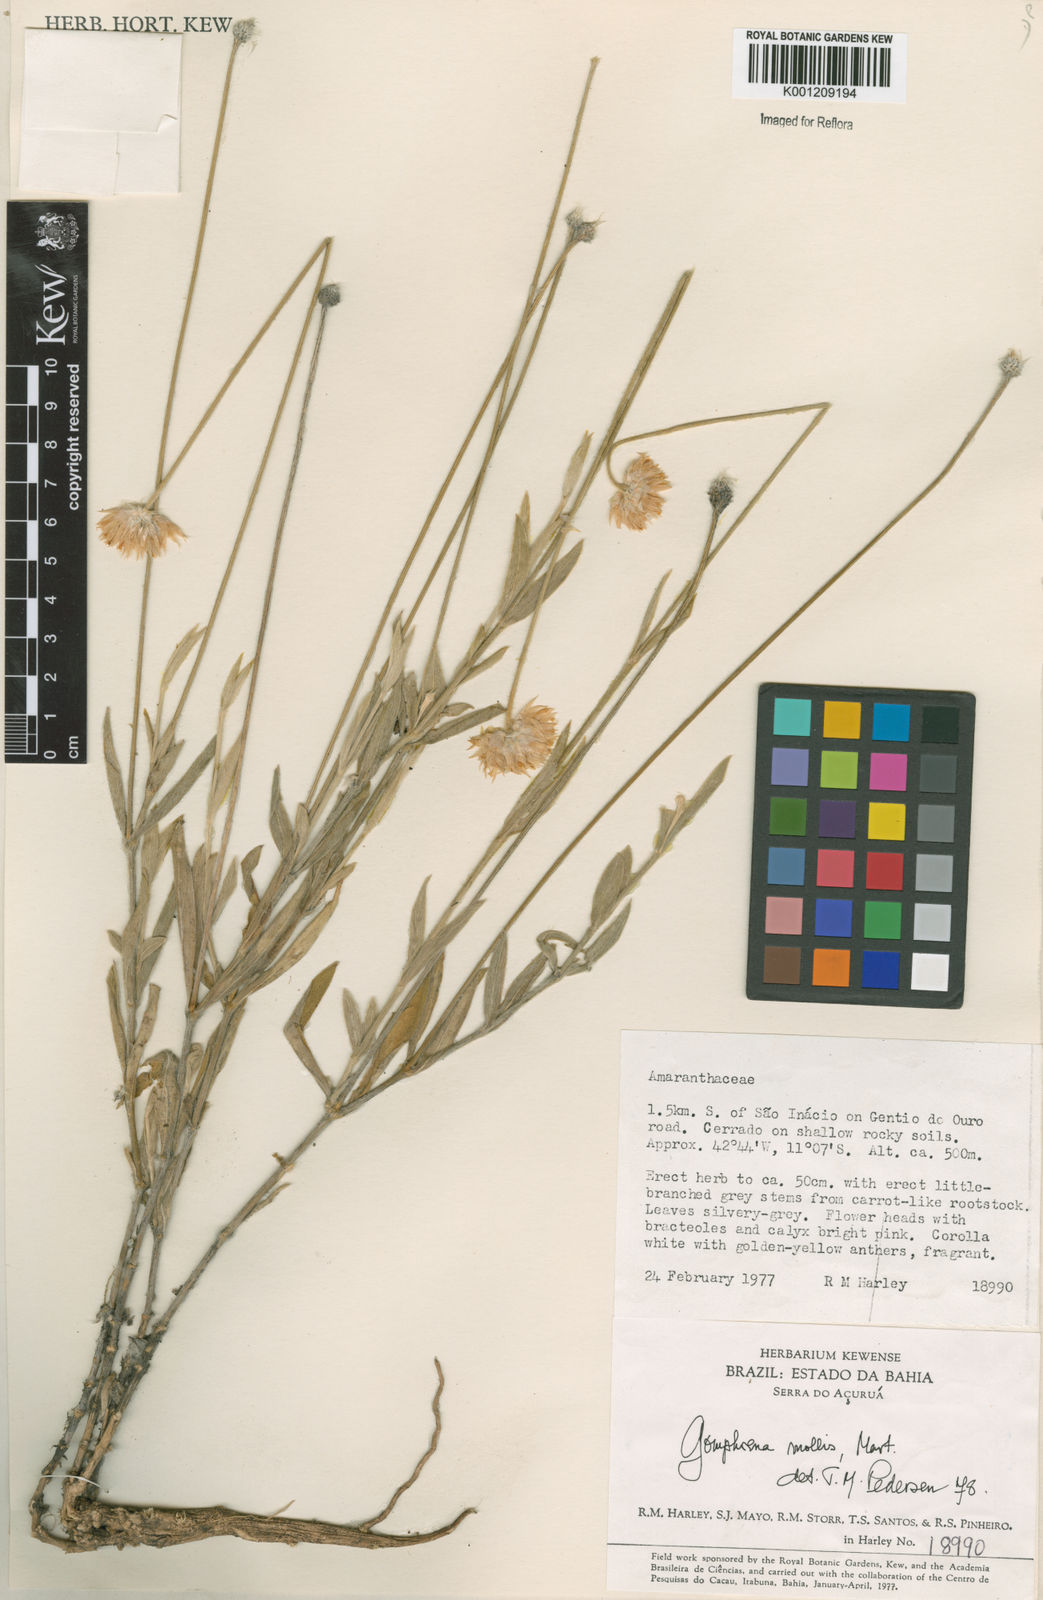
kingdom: Plantae
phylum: Tracheophyta
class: Magnoliopsida
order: Caryophyllales
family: Amaranthaceae
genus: Gomphrena
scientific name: Gomphrena mollis
